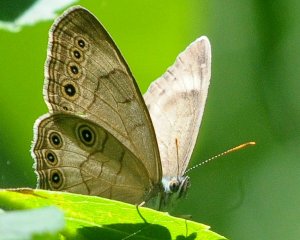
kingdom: Animalia
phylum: Arthropoda
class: Insecta
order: Lepidoptera
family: Nymphalidae
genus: Lethe
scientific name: Lethe eurydice
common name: Appalachian Eyed Brown
